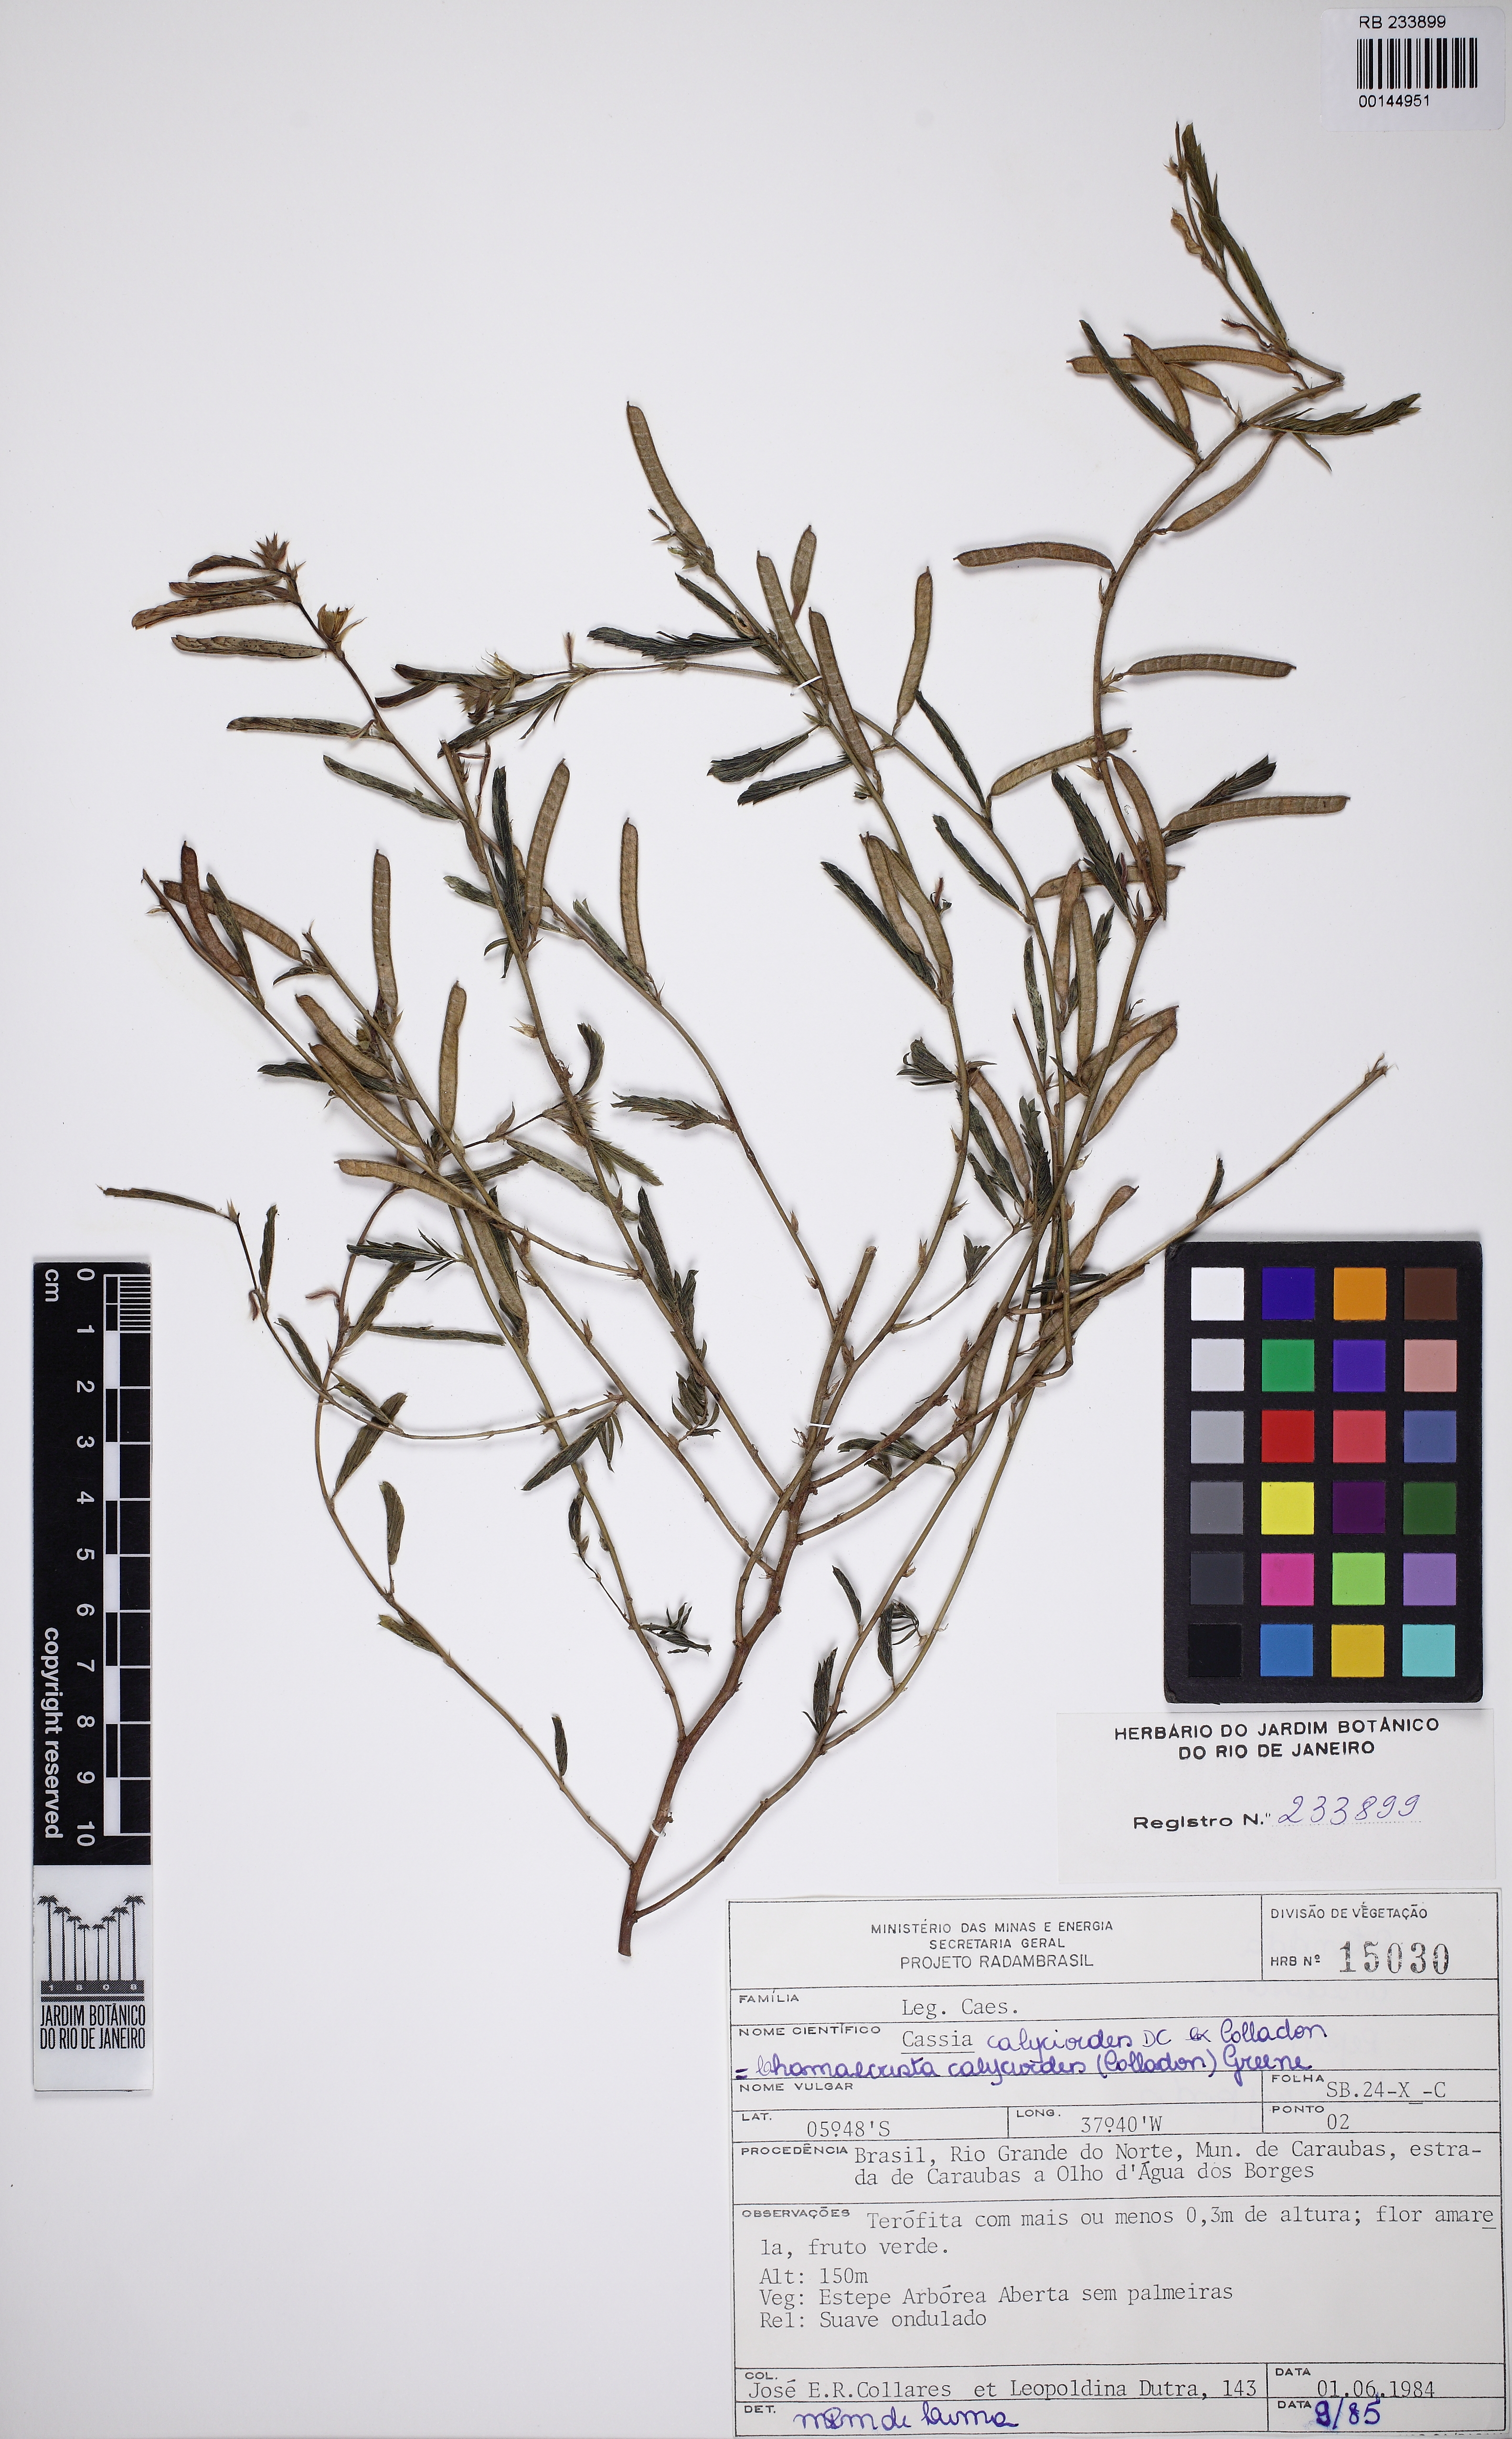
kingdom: Plantae
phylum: Tracheophyta
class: Magnoliopsida
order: Fabales
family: Fabaceae
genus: Chamaecrista
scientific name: Chamaecrista calycioides
